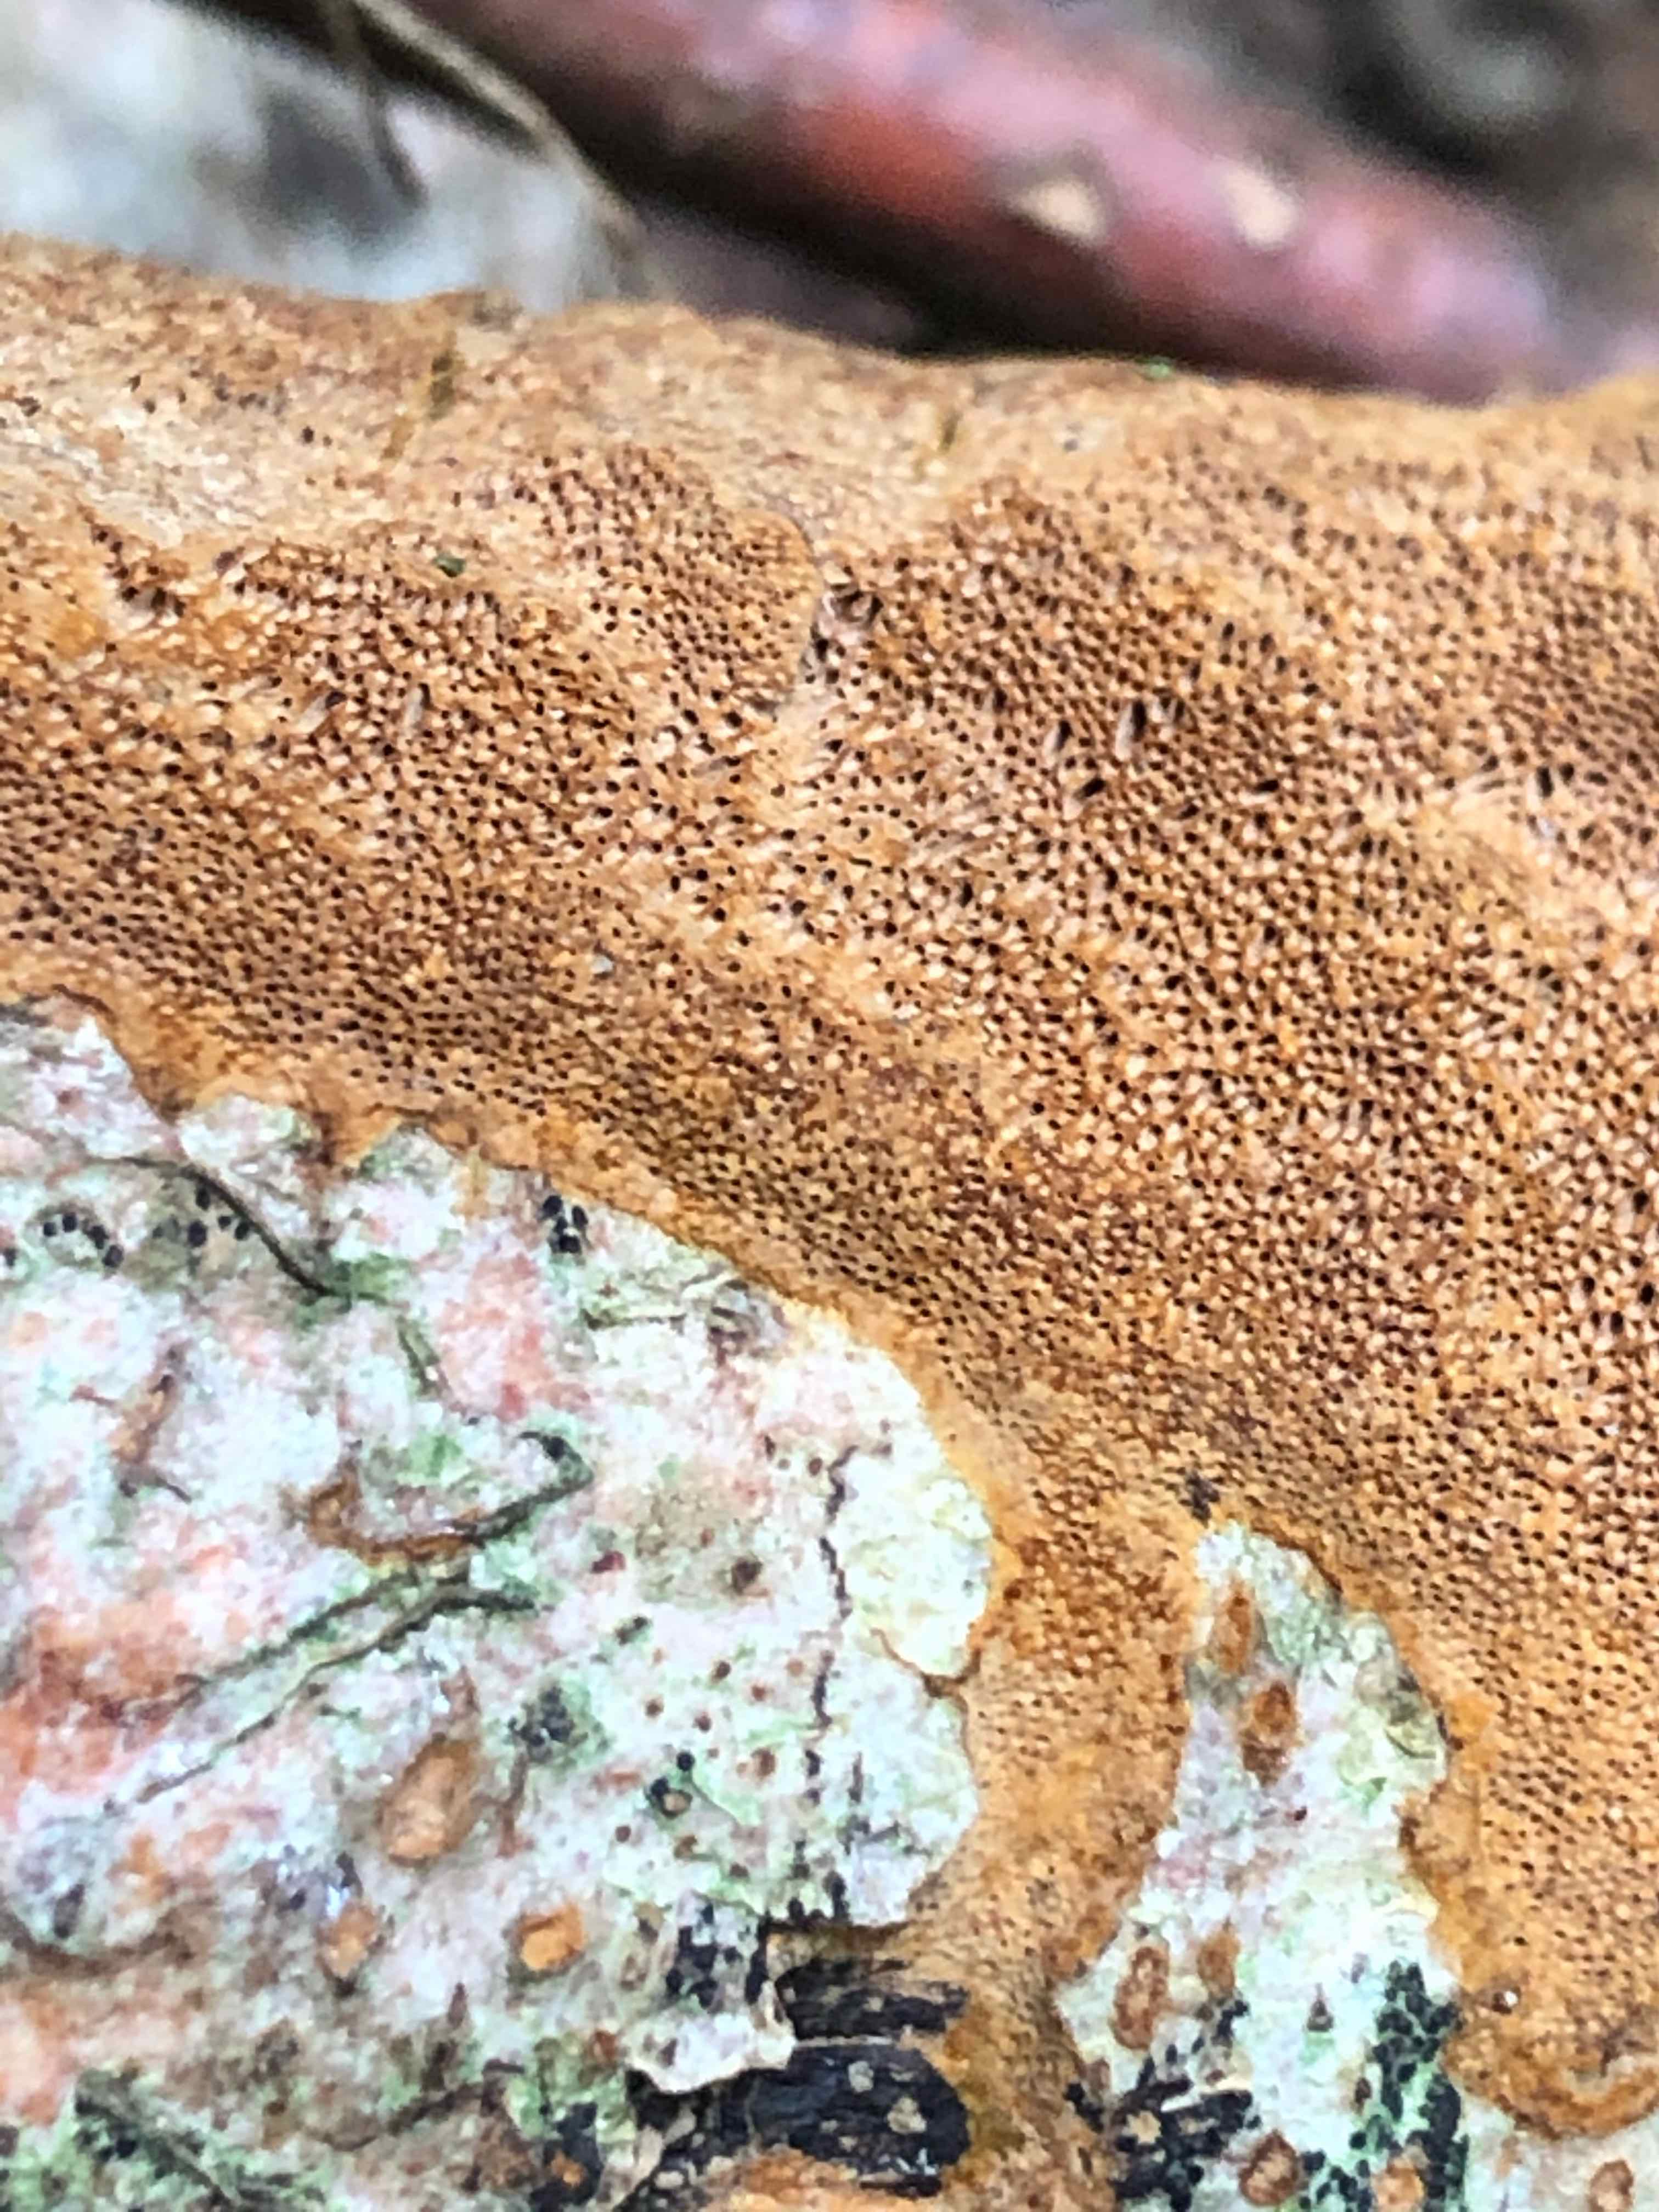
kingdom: Fungi
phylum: Basidiomycota
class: Agaricomycetes
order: Hymenochaetales
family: Hymenochaetaceae
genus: Fuscoporia
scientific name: Fuscoporia ferrea
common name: skorpe-ildporesvamp
